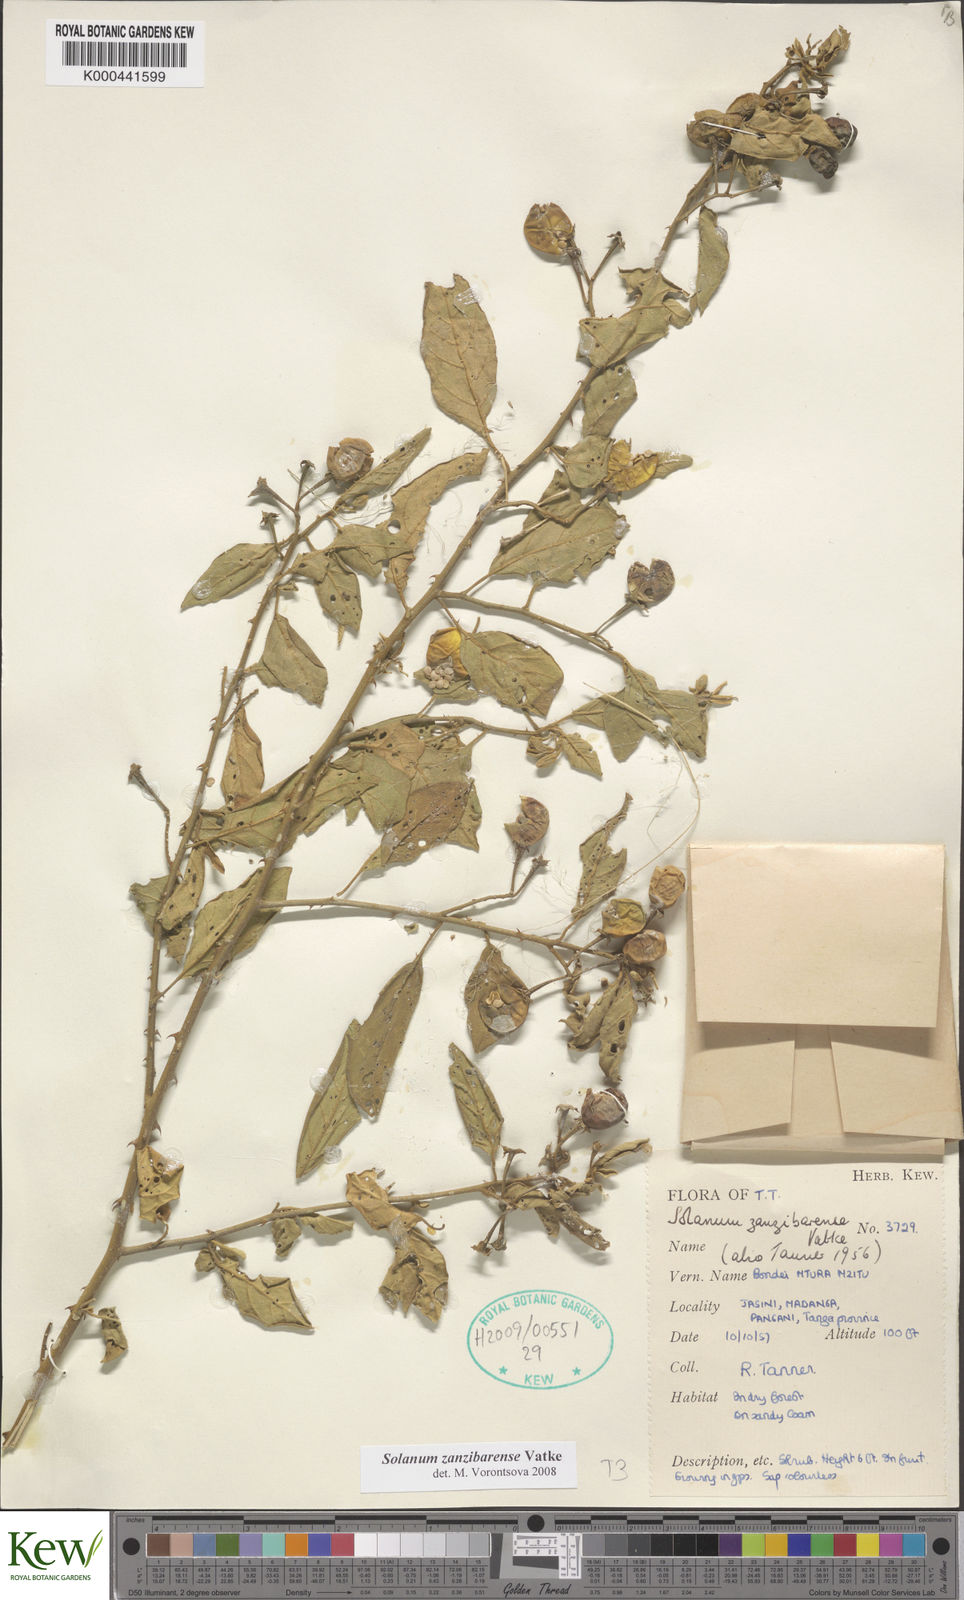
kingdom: Plantae
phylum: Tracheophyta
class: Magnoliopsida
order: Solanales
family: Solanaceae
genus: Solanum
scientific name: Solanum zanzibarense
